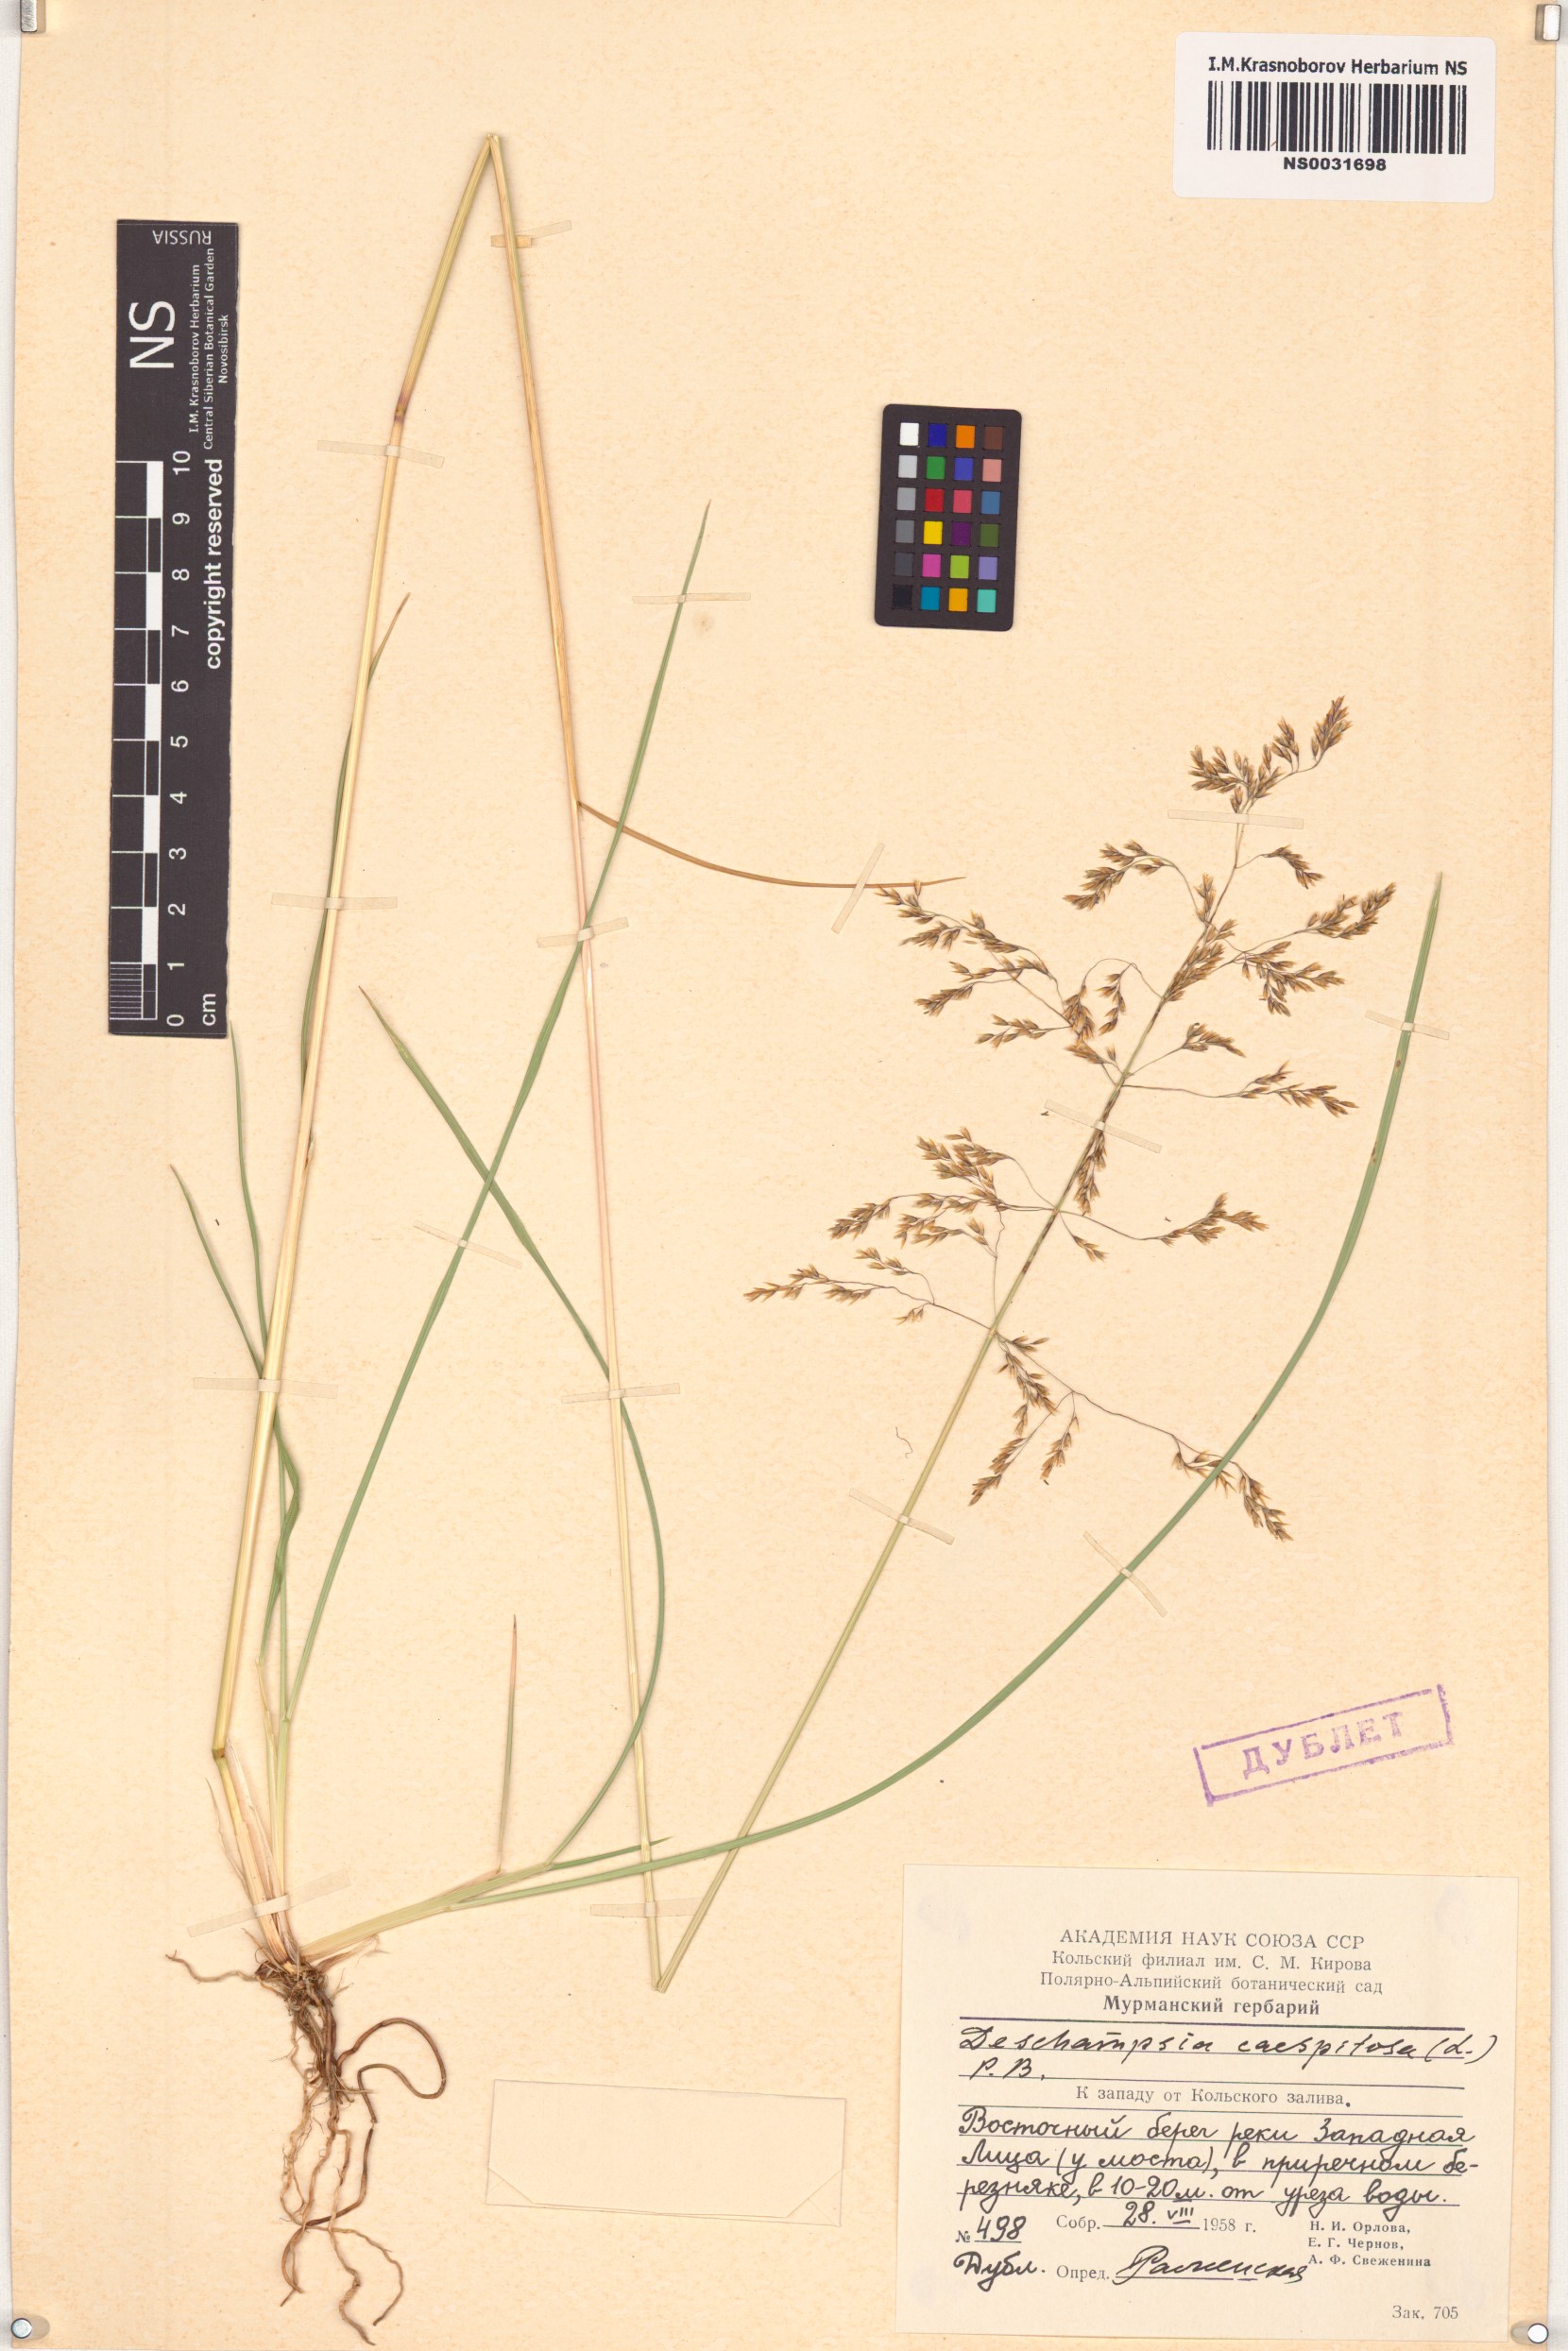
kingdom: Plantae
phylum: Tracheophyta
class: Liliopsida
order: Poales
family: Poaceae
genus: Deschampsia
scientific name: Deschampsia cespitosa
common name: Tufted hair-grass
